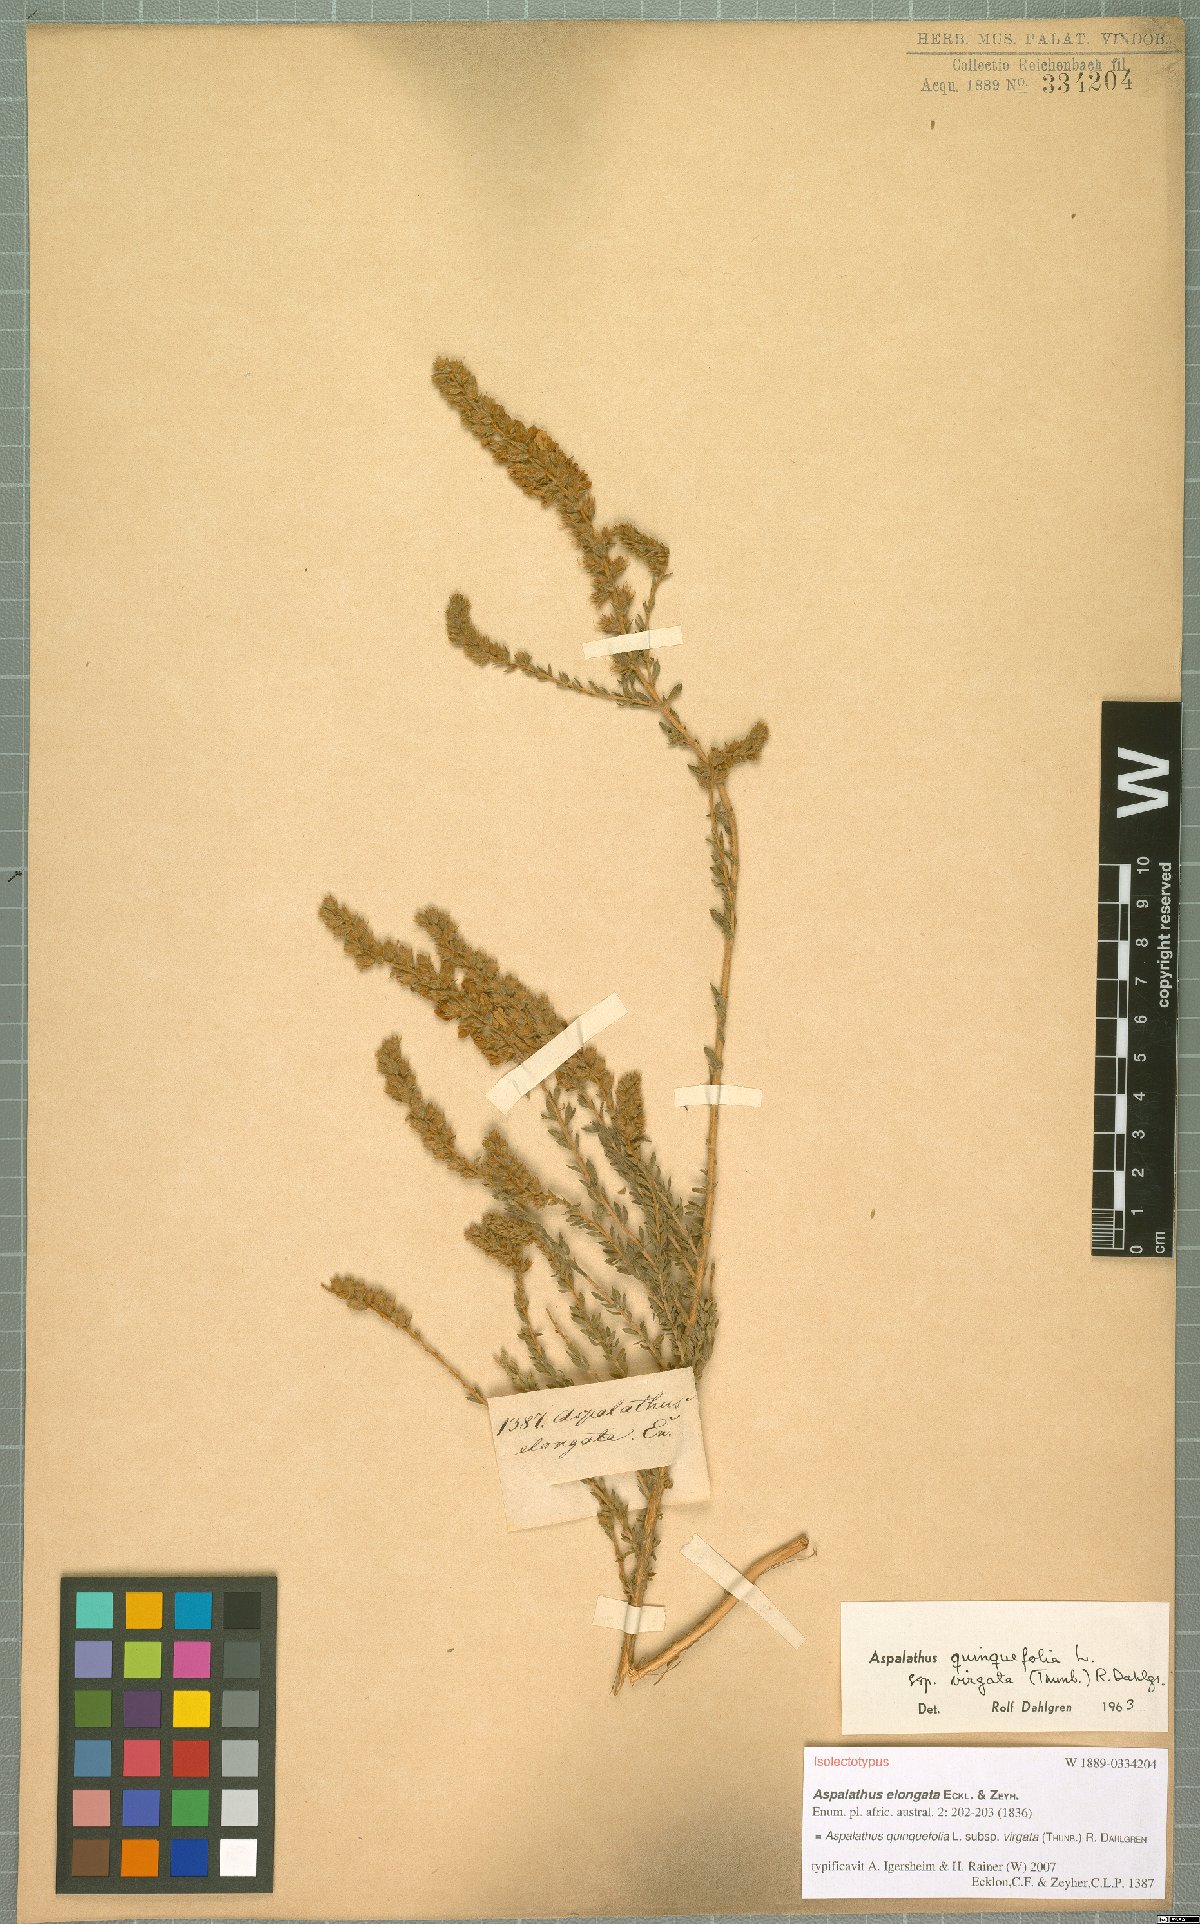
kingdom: Plantae
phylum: Tracheophyta
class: Magnoliopsida
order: Fabales
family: Fabaceae
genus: Aspalathus
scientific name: Aspalathus quinquefolia
